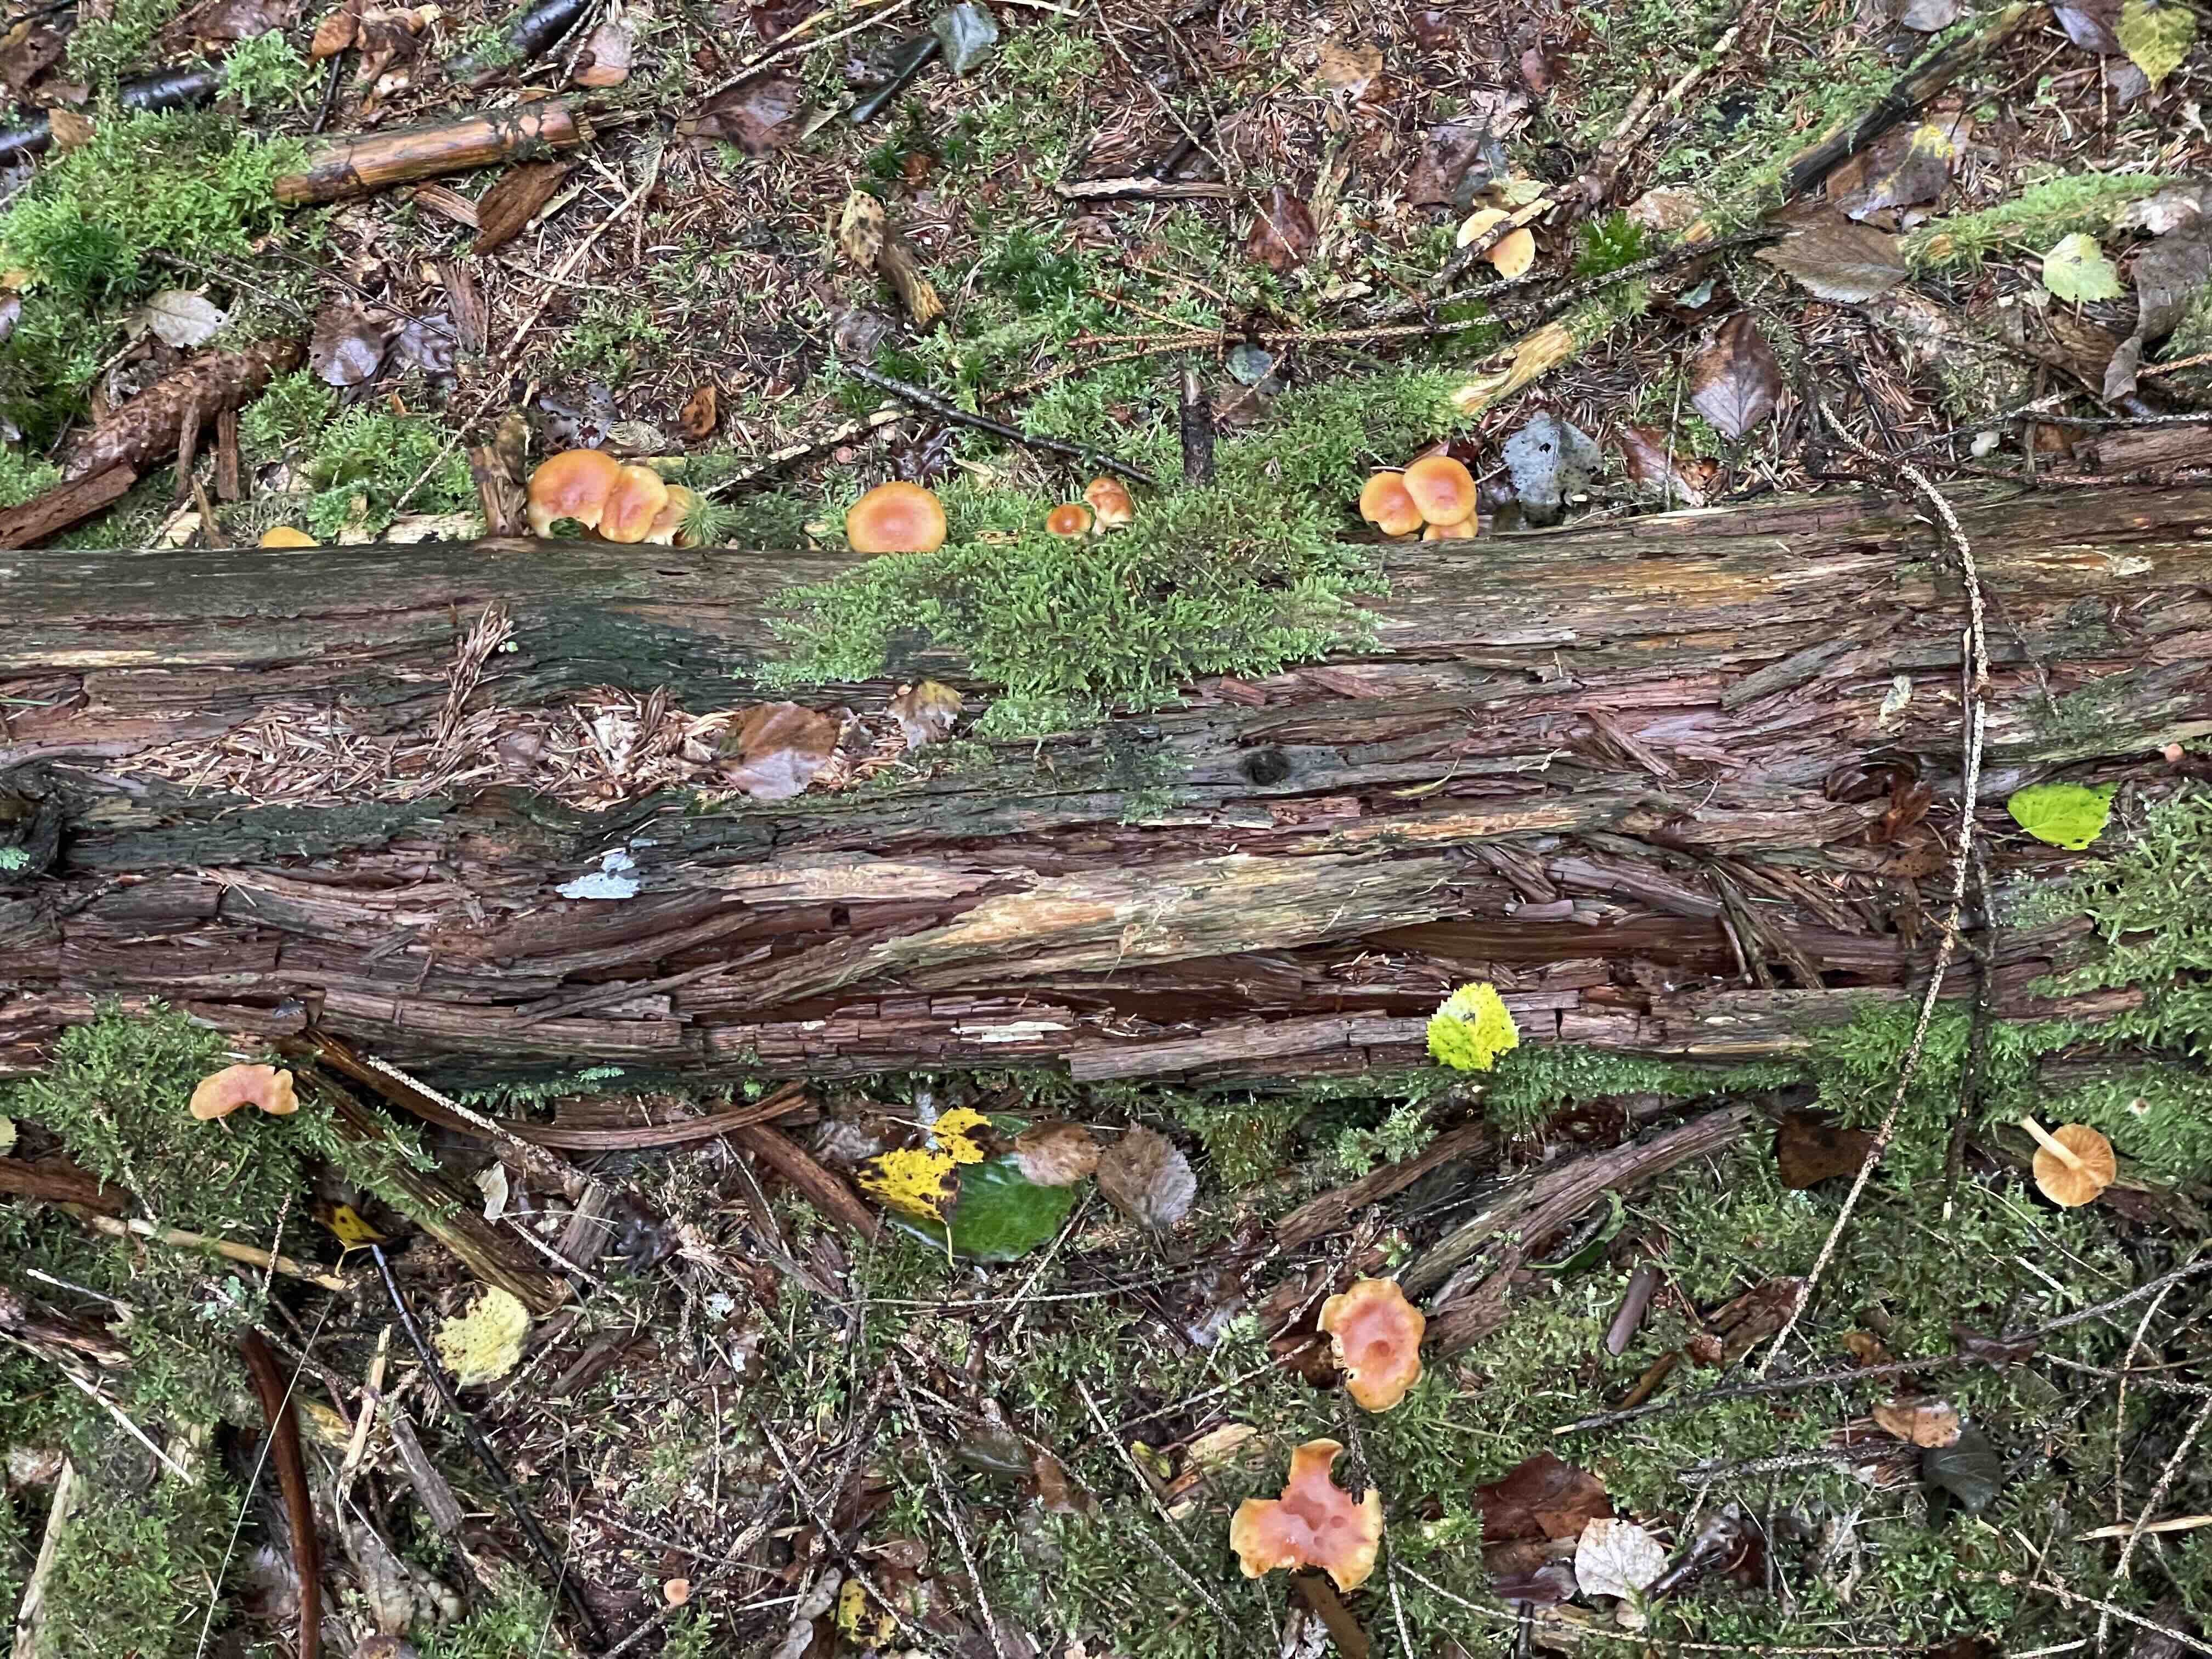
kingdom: Fungi
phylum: Basidiomycota
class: Agaricomycetes
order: Agaricales
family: Hymenogastraceae
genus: Gymnopilus
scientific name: Gymnopilus penetrans
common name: plettet flammehat
